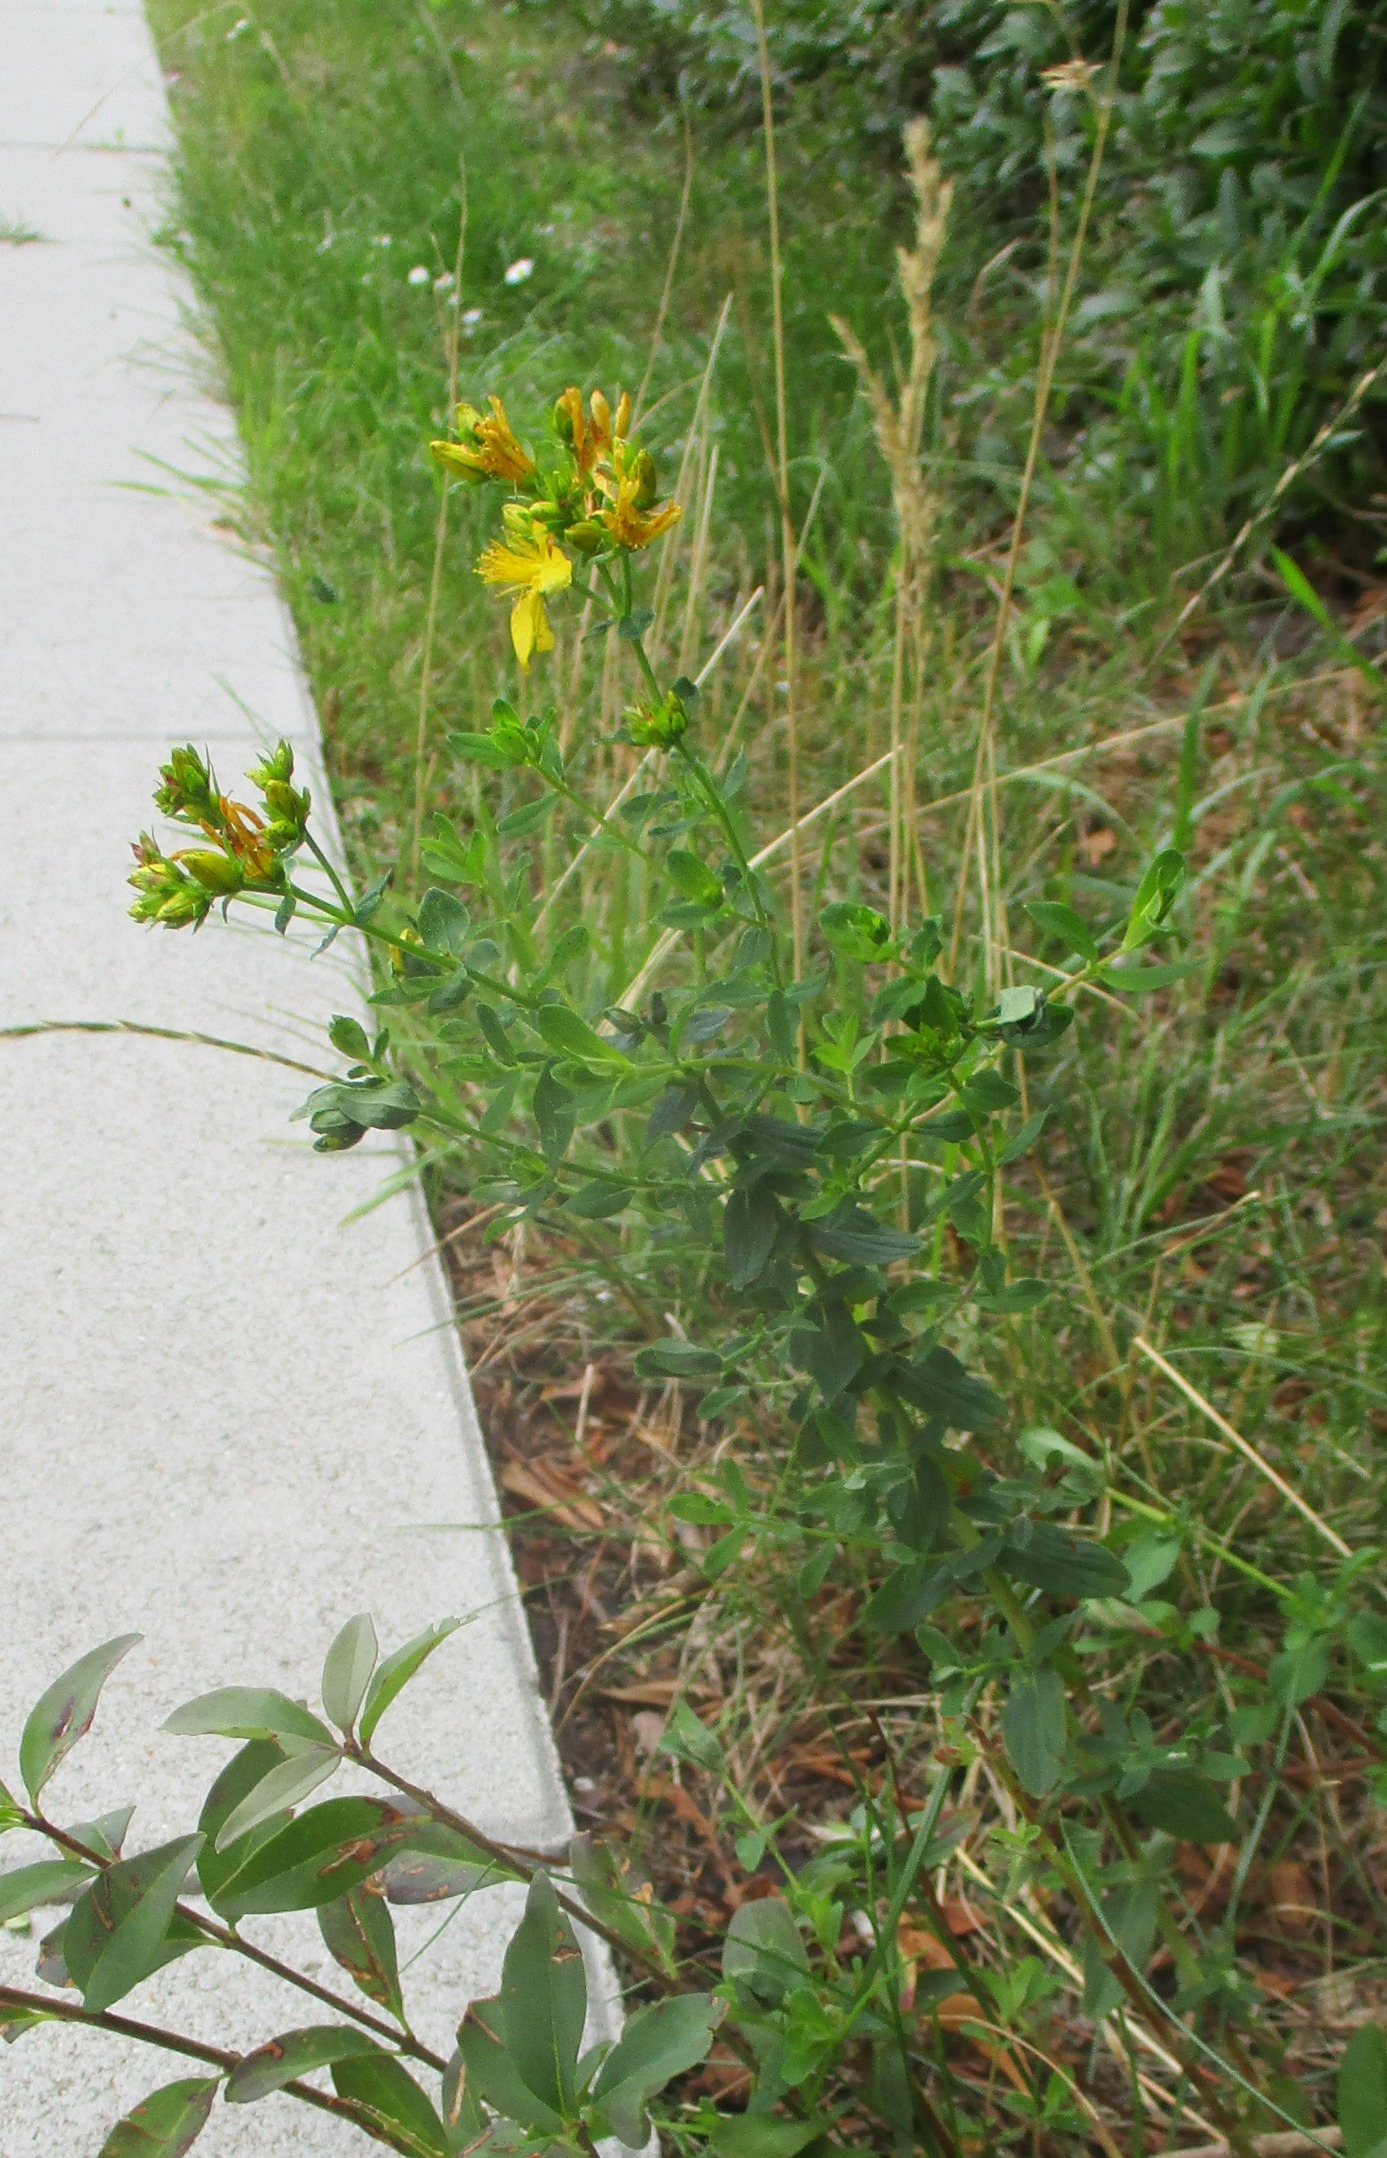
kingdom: Plantae
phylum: Tracheophyta
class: Magnoliopsida
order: Malpighiales
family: Hypericaceae
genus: Hypericum
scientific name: Hypericum perforatum
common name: Prikbladet perikon
